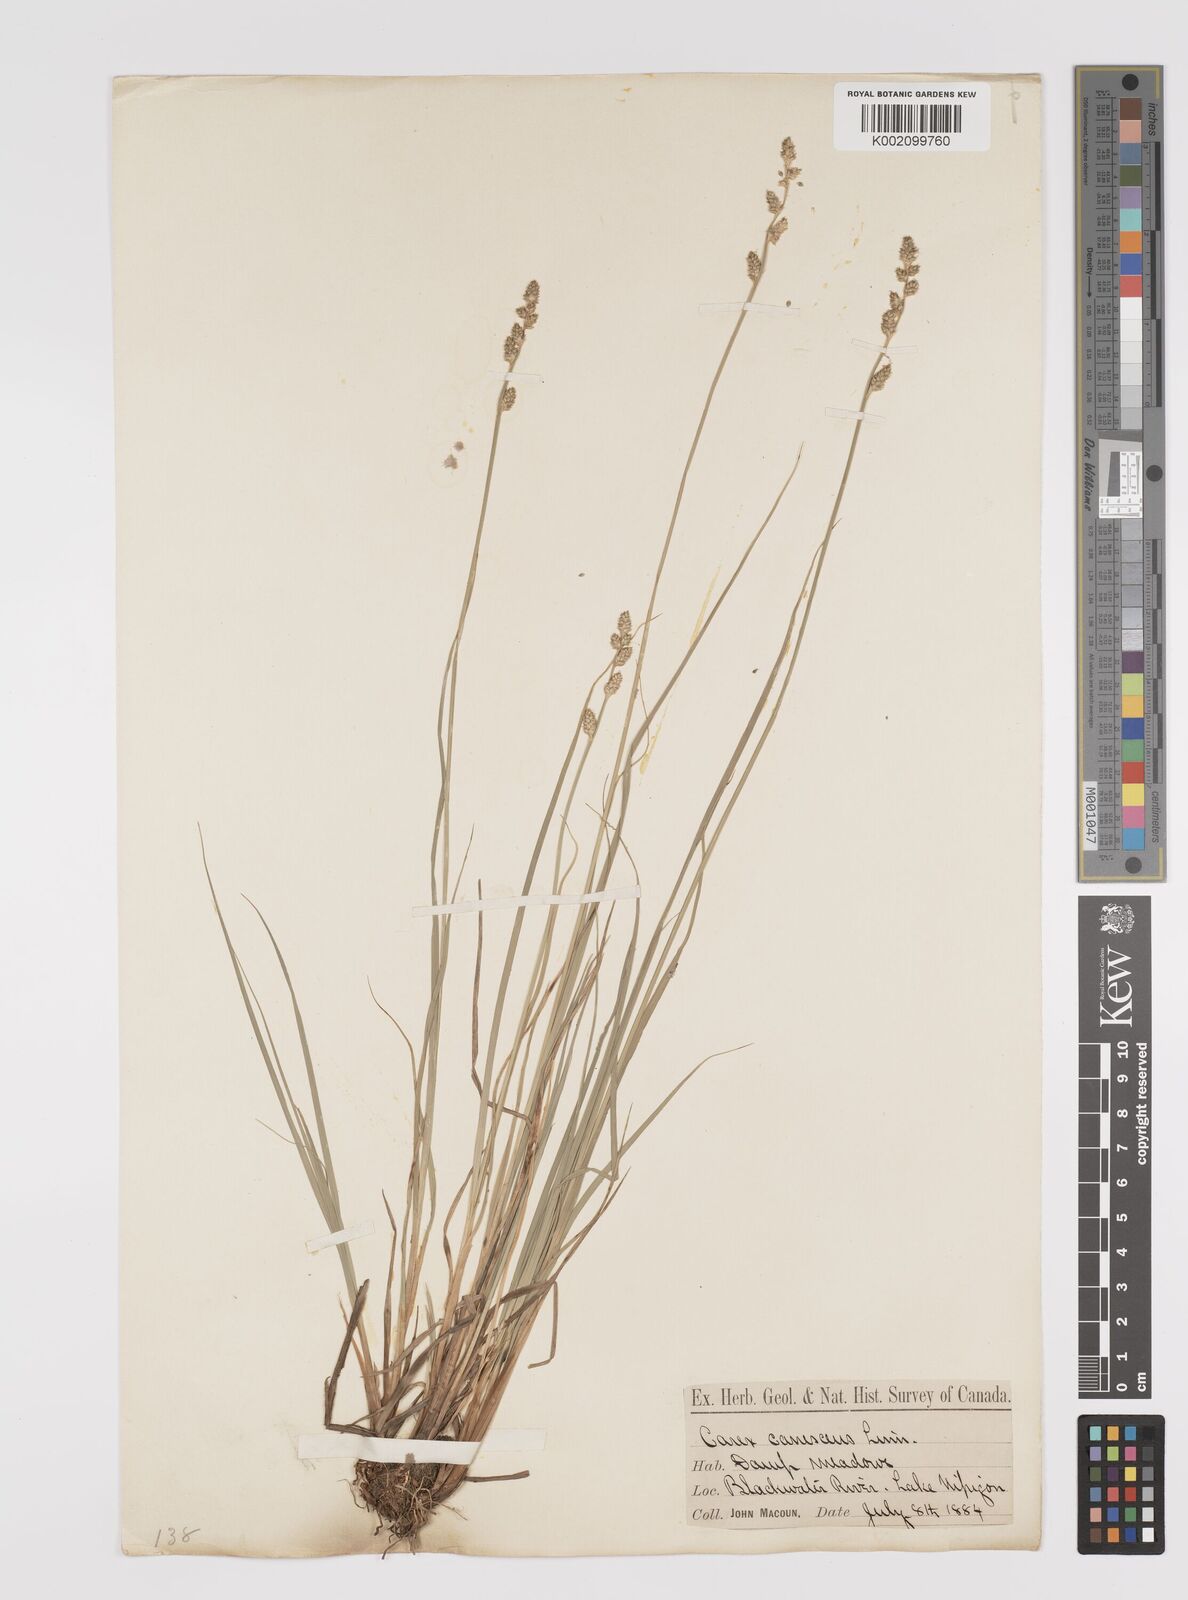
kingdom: Plantae
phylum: Tracheophyta
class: Liliopsida
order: Poales
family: Cyperaceae
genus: Carex
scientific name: Carex curta
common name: White sedge
